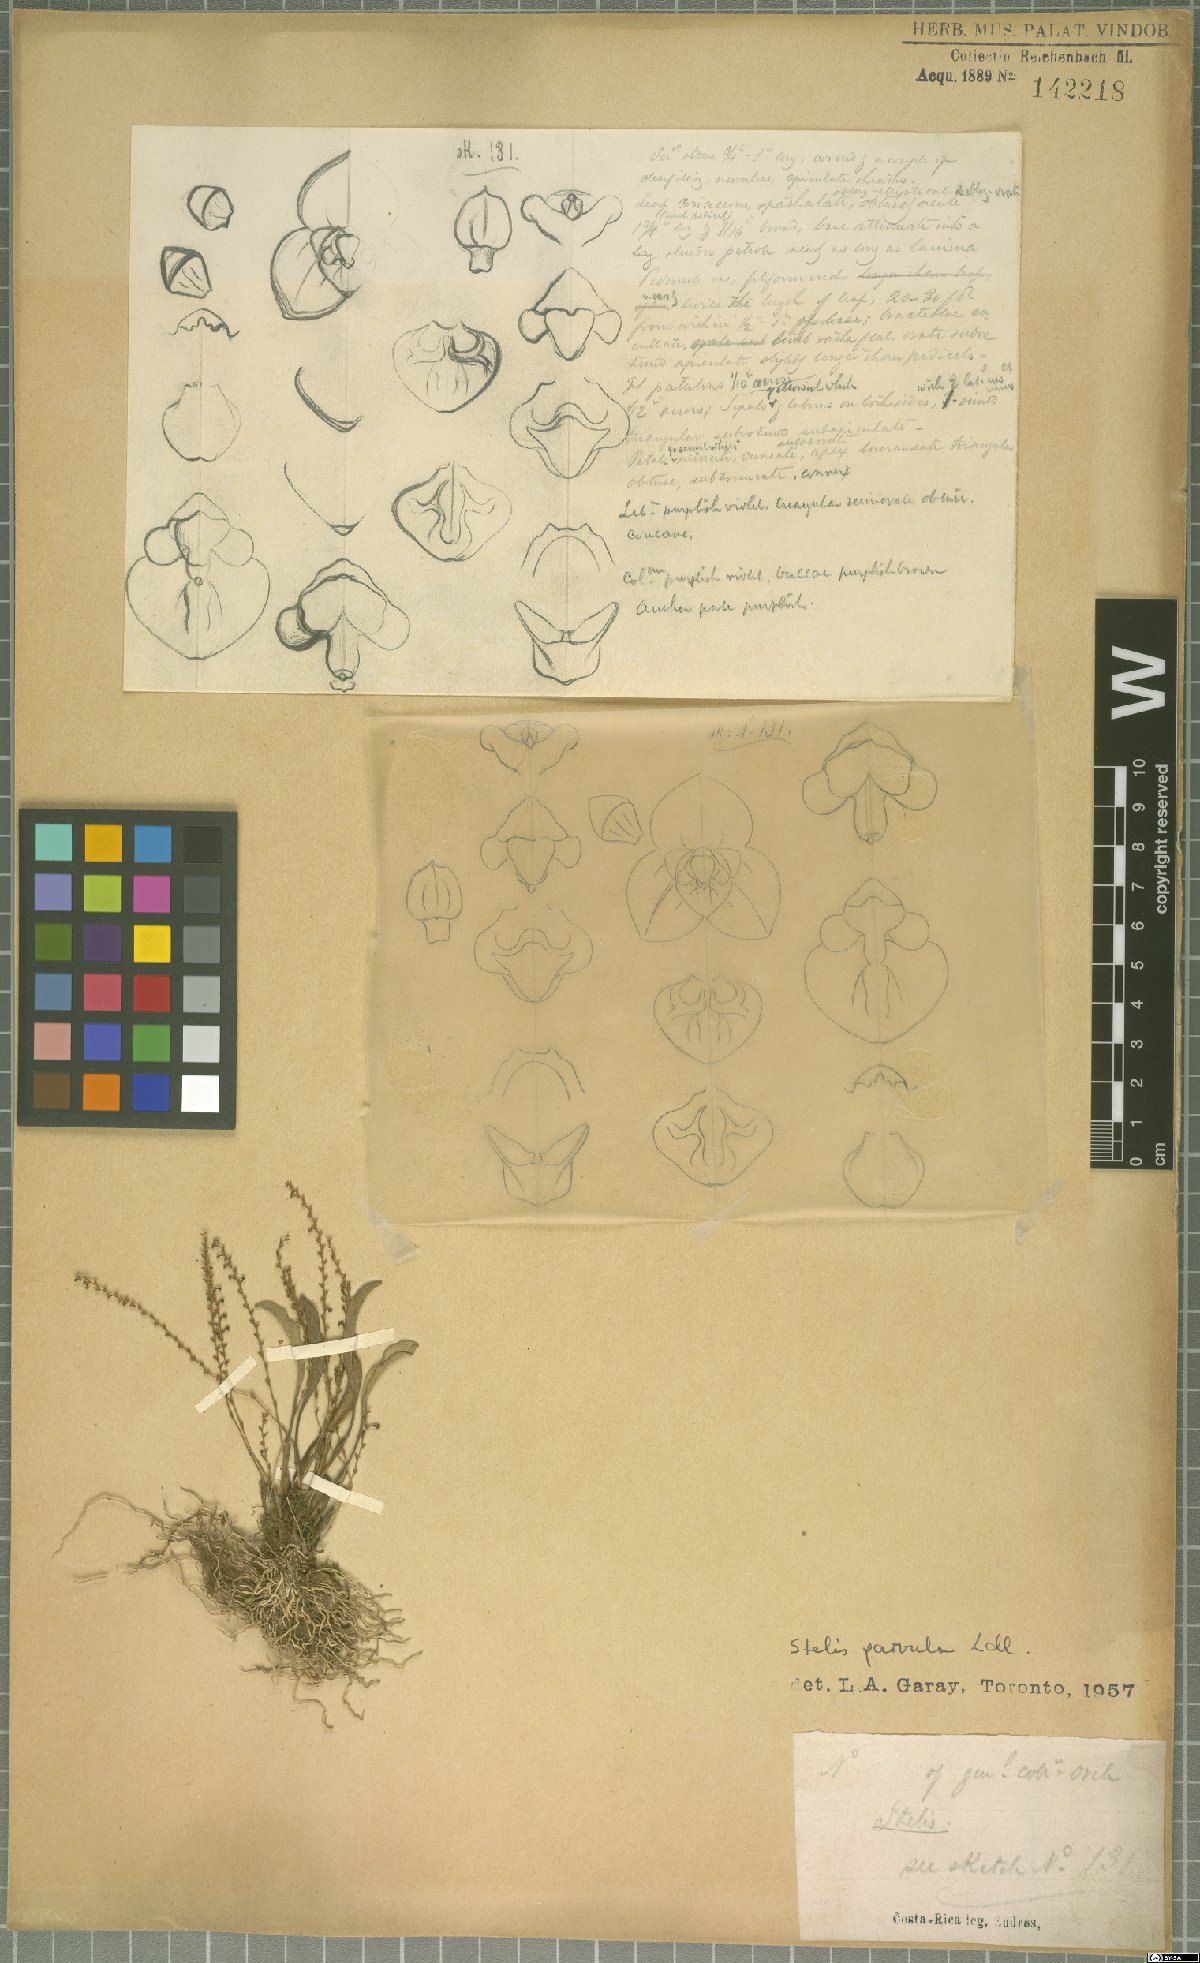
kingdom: Plantae
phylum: Tracheophyta
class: Liliopsida
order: Asparagales
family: Orchidaceae
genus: Stelis
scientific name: Stelis parvula
